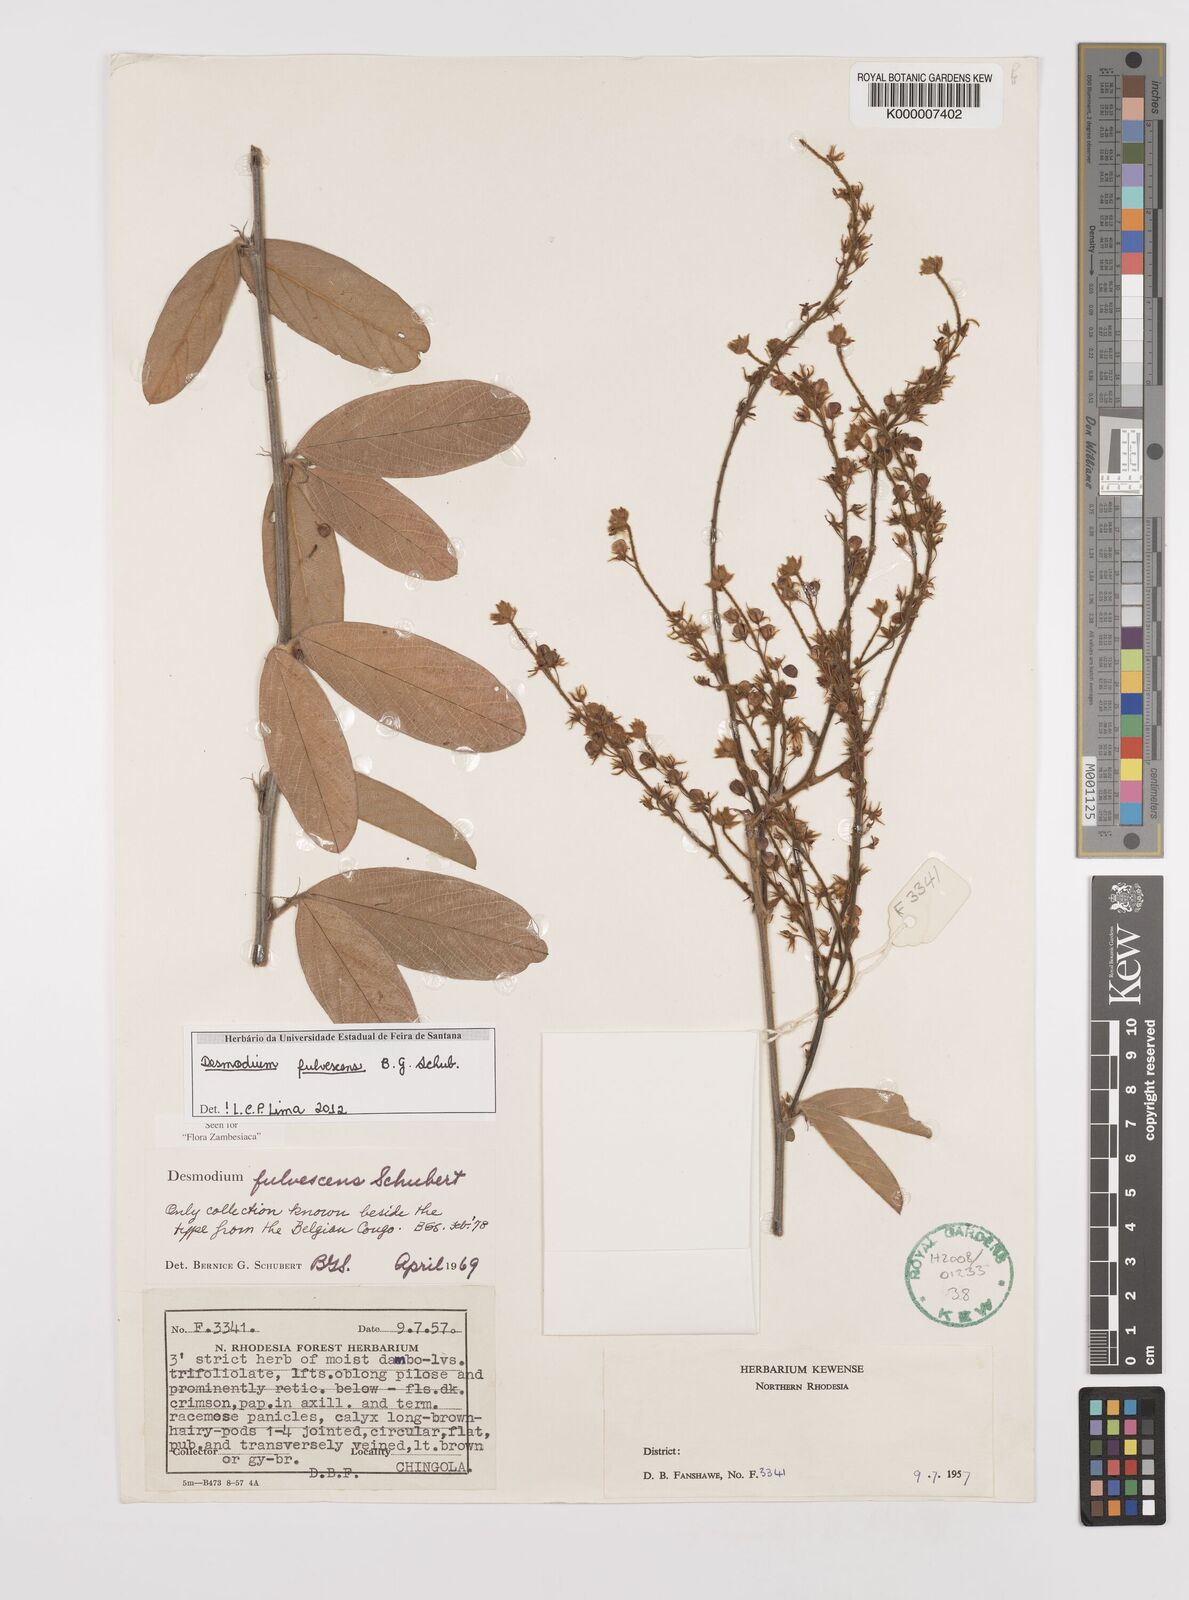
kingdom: Plantae
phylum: Tracheophyta
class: Magnoliopsida
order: Fabales
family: Fabaceae
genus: Grona
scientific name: Grona fulvescens
